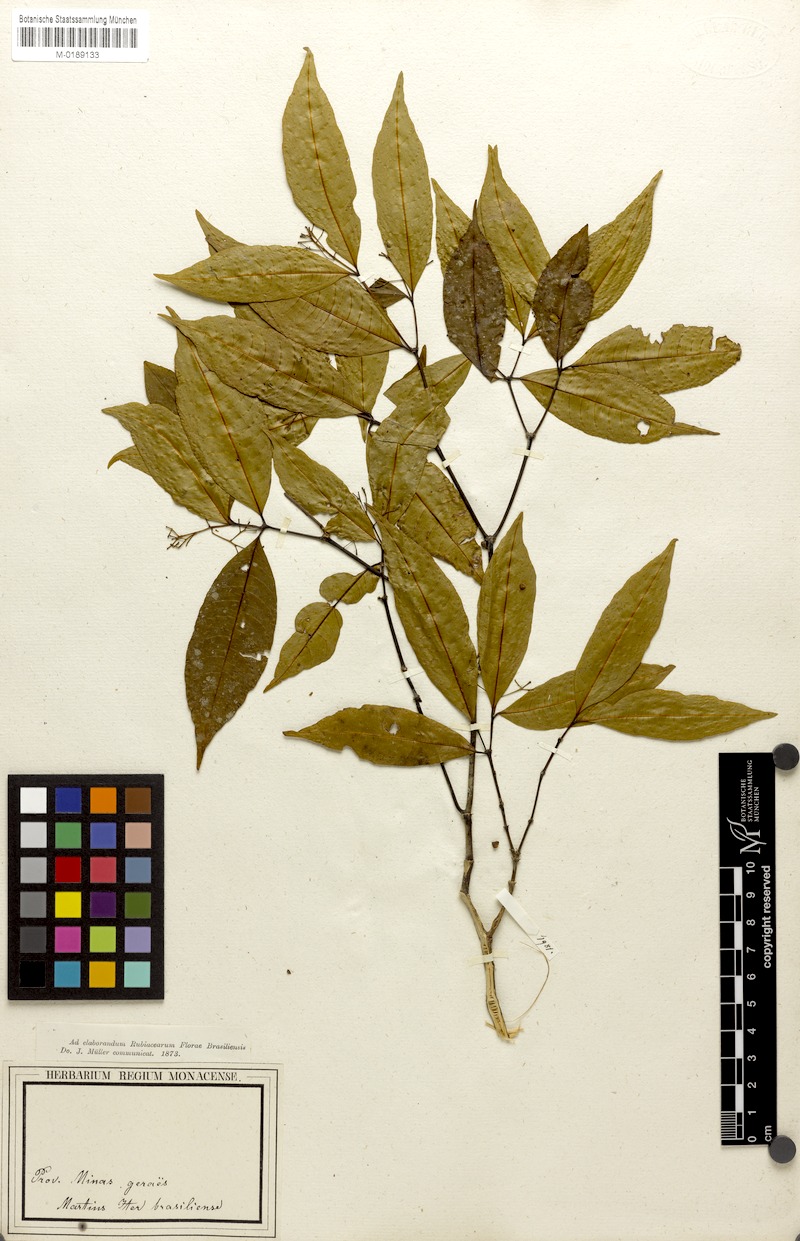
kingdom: Plantae
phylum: Tracheophyta
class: Magnoliopsida
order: Gentianales
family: Rubiaceae
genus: Psychotria
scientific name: Psychotria leiocarpa
